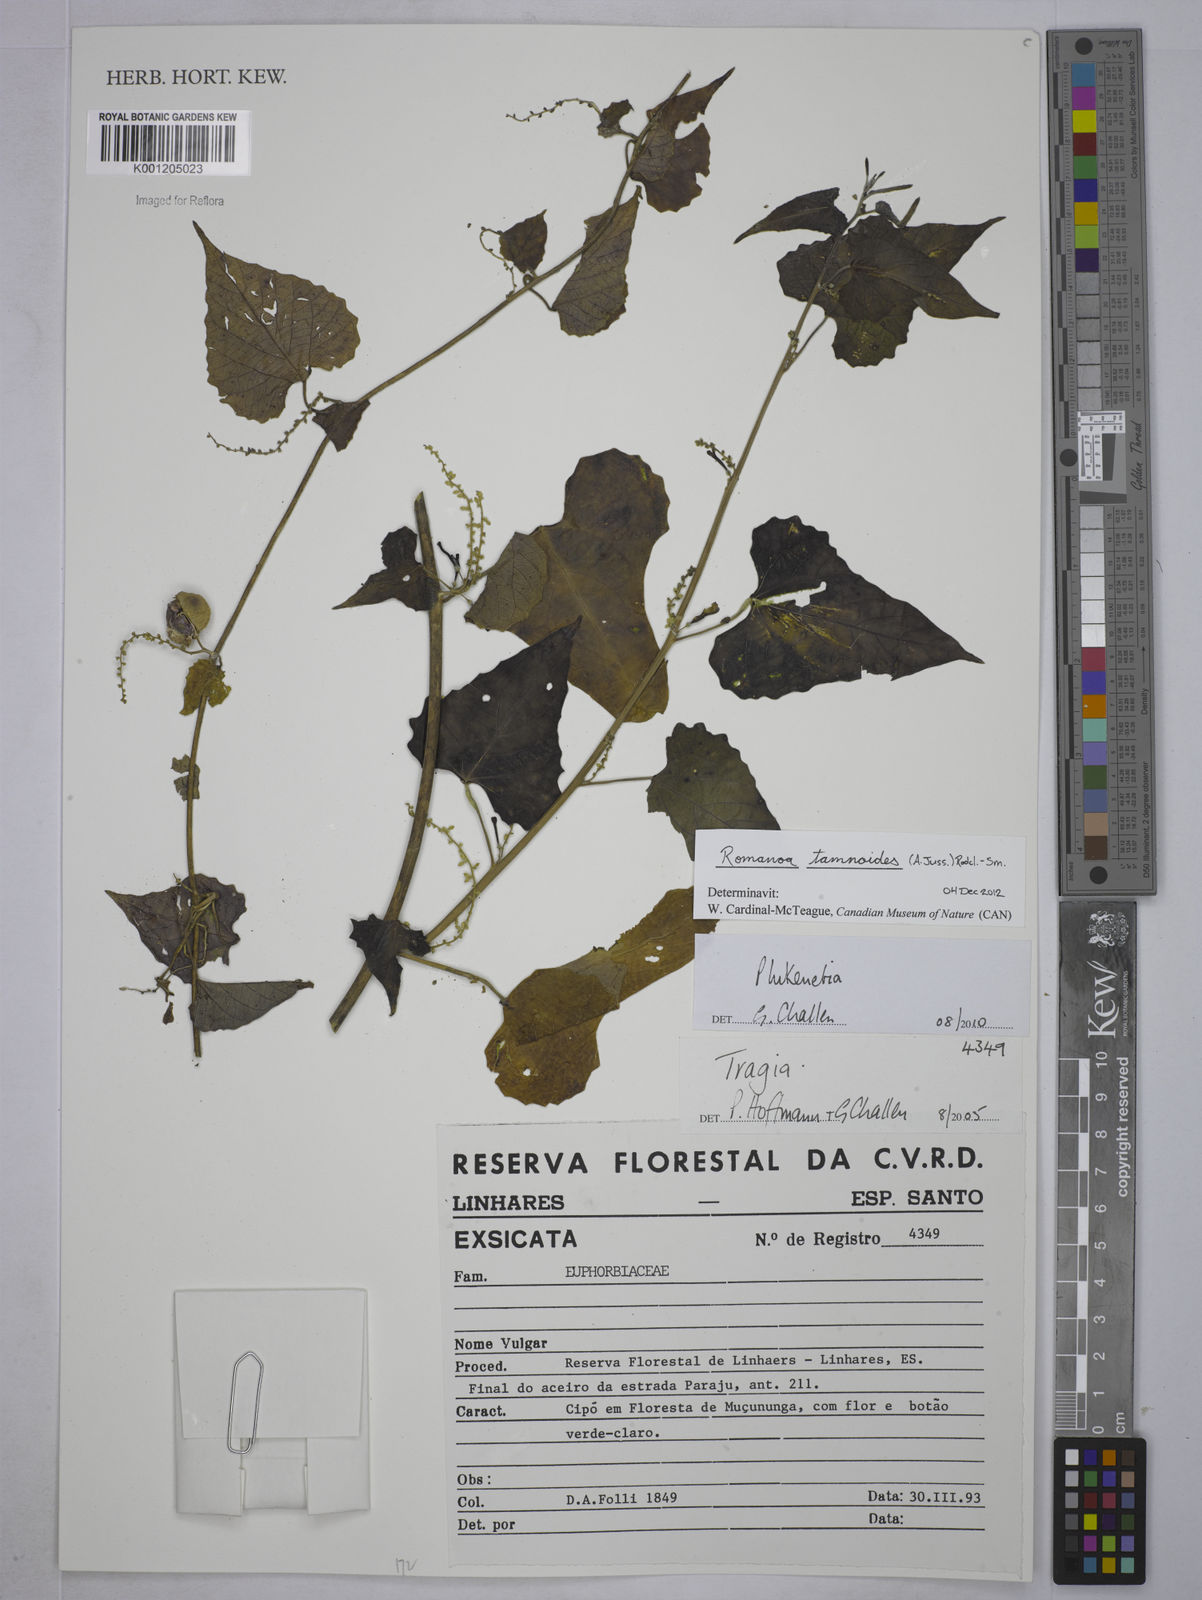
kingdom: Plantae
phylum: Tracheophyta
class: Magnoliopsida
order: Malpighiales
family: Euphorbiaceae
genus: Romanoa
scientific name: Romanoa tamnoides
